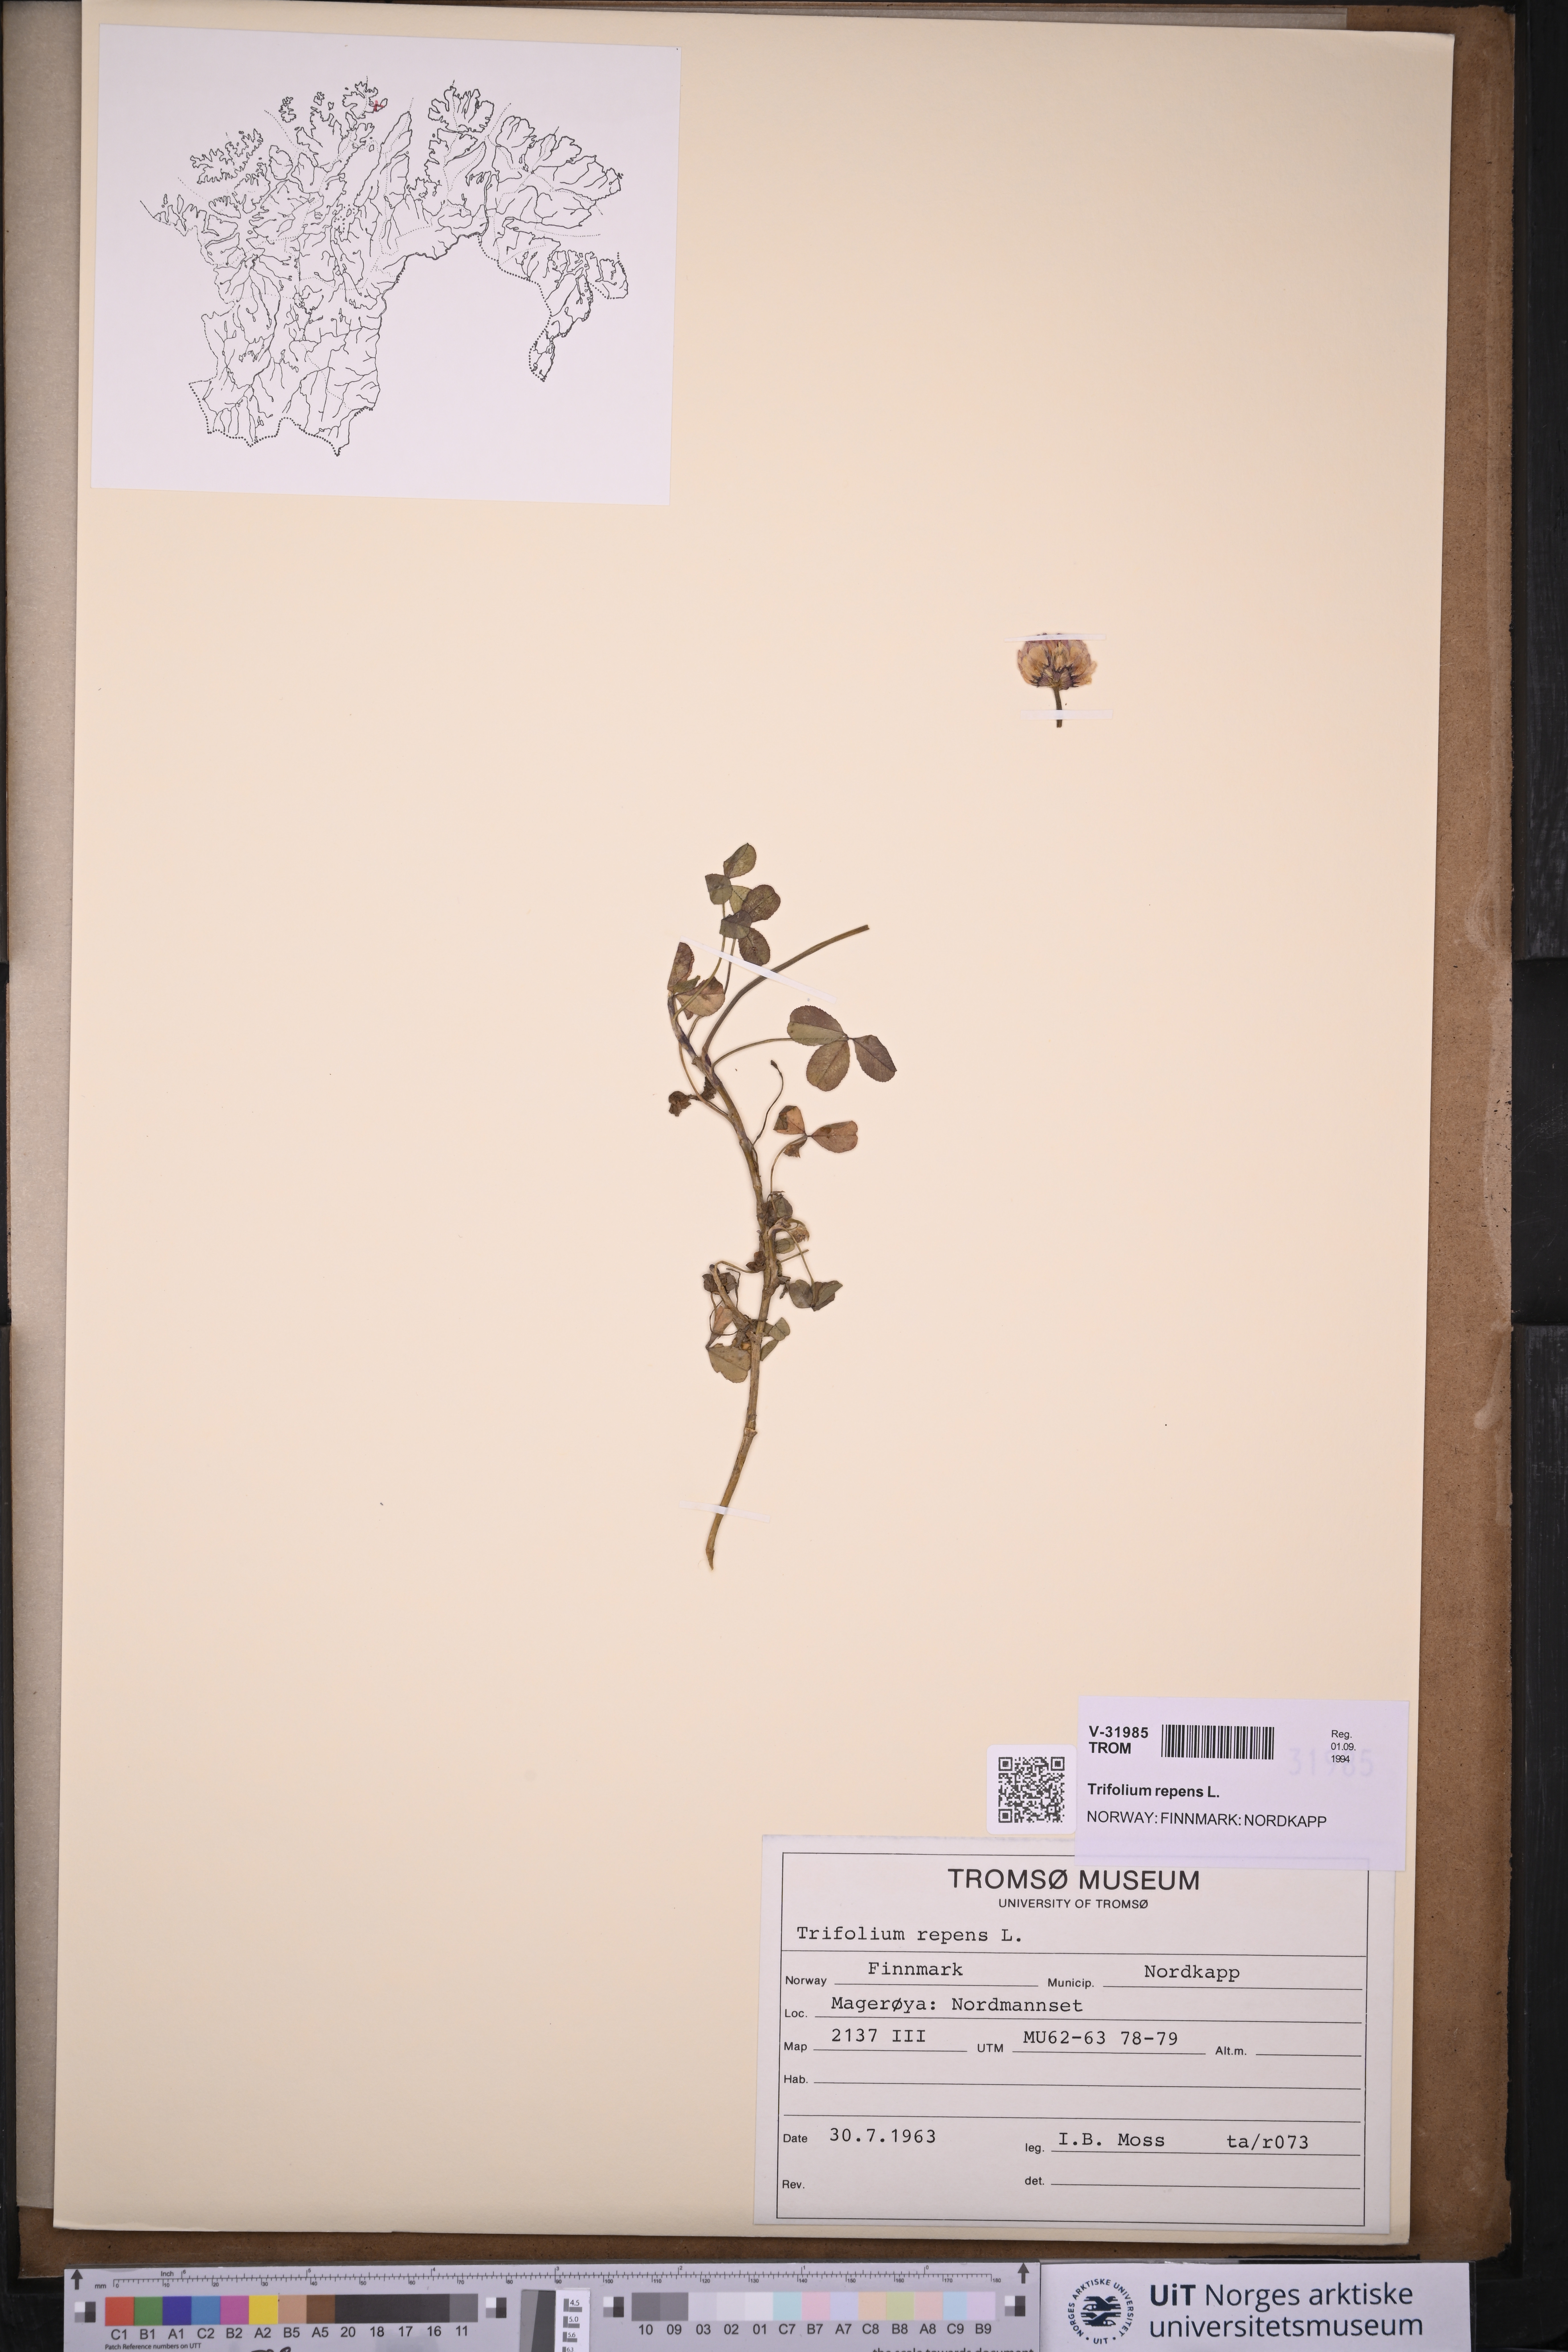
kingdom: Plantae
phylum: Tracheophyta
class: Magnoliopsida
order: Fabales
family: Fabaceae
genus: Trifolium
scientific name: Trifolium repens
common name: White clover
